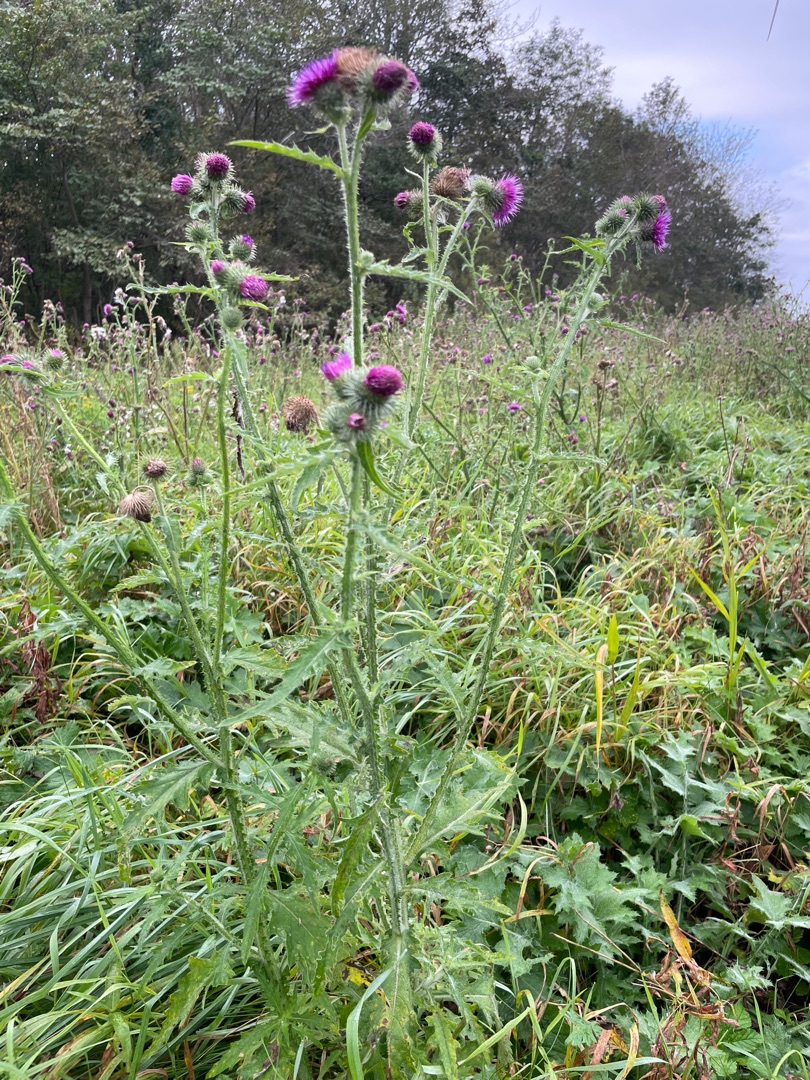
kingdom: Plantae
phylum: Tracheophyta
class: Magnoliopsida
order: Asterales
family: Asteraceae
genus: Carduus
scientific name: Carduus crispus
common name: Kruset tidsel
